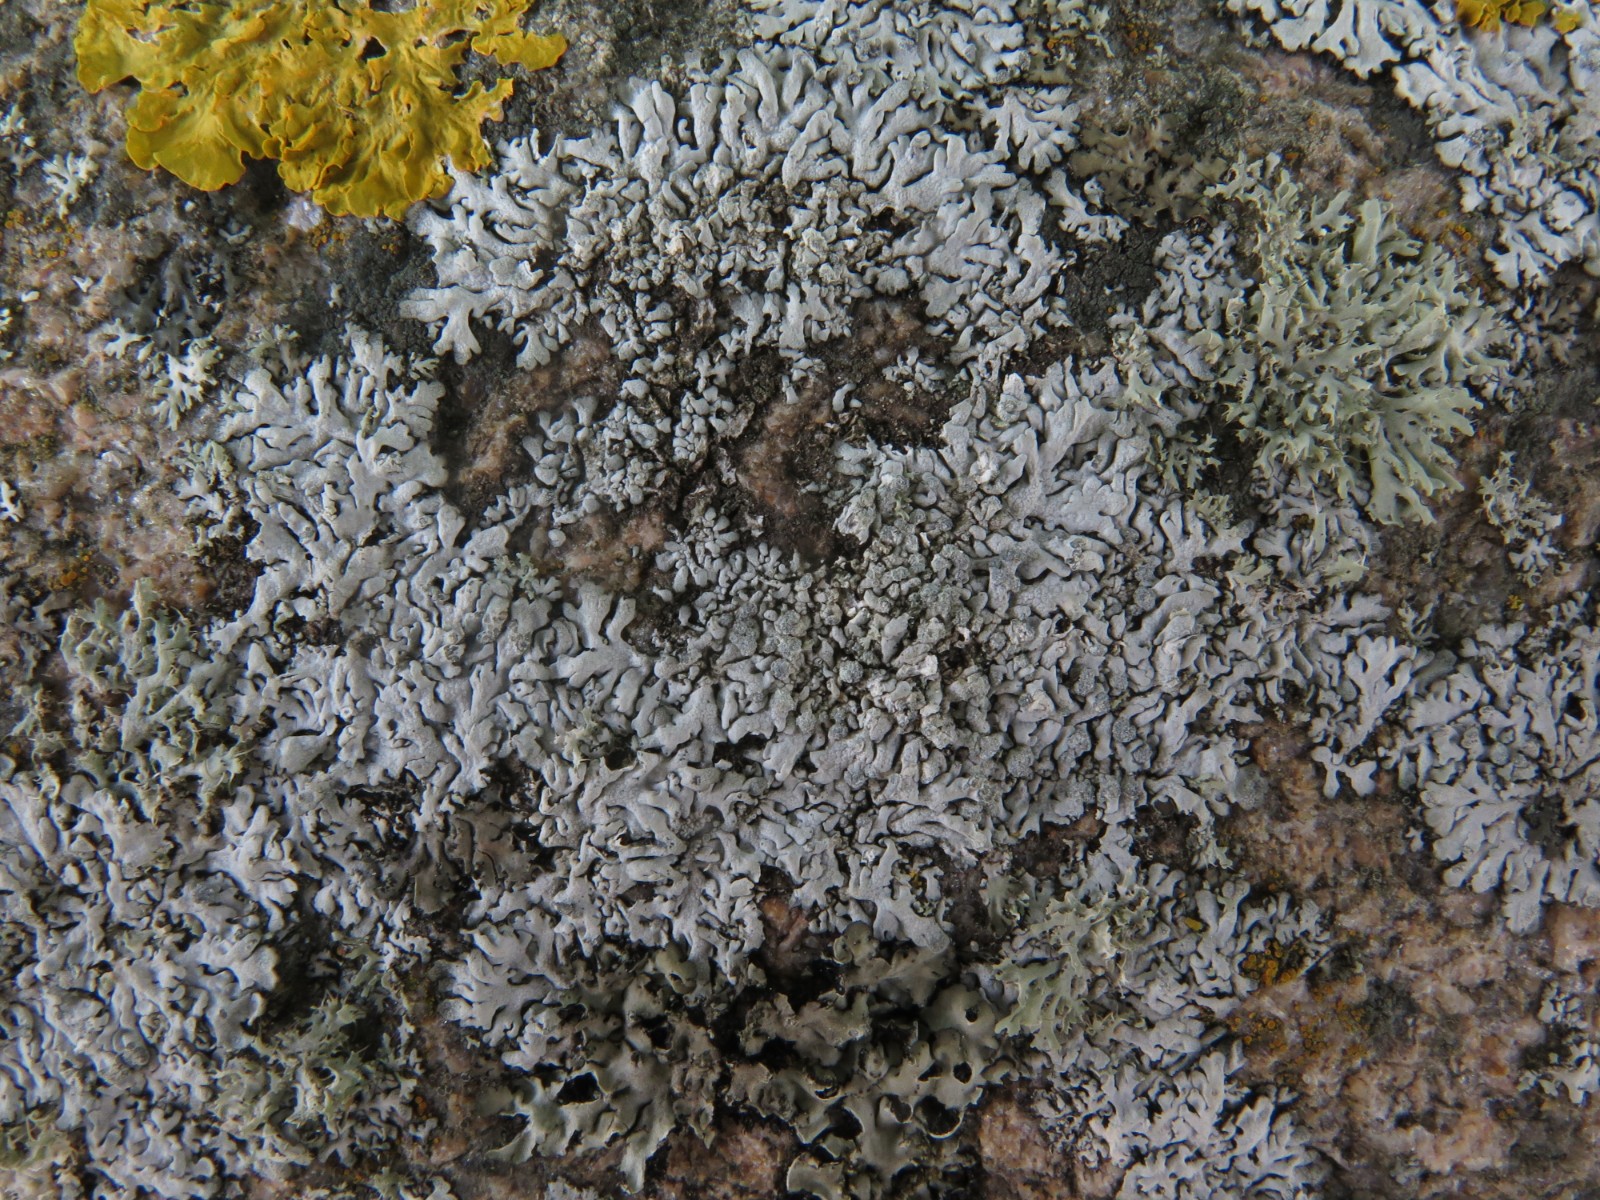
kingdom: Fungi
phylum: Ascomycota
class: Lecanoromycetes
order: Caliciales
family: Physciaceae
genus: Physcia
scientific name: Physcia caesia
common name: blågrå rosetlav
